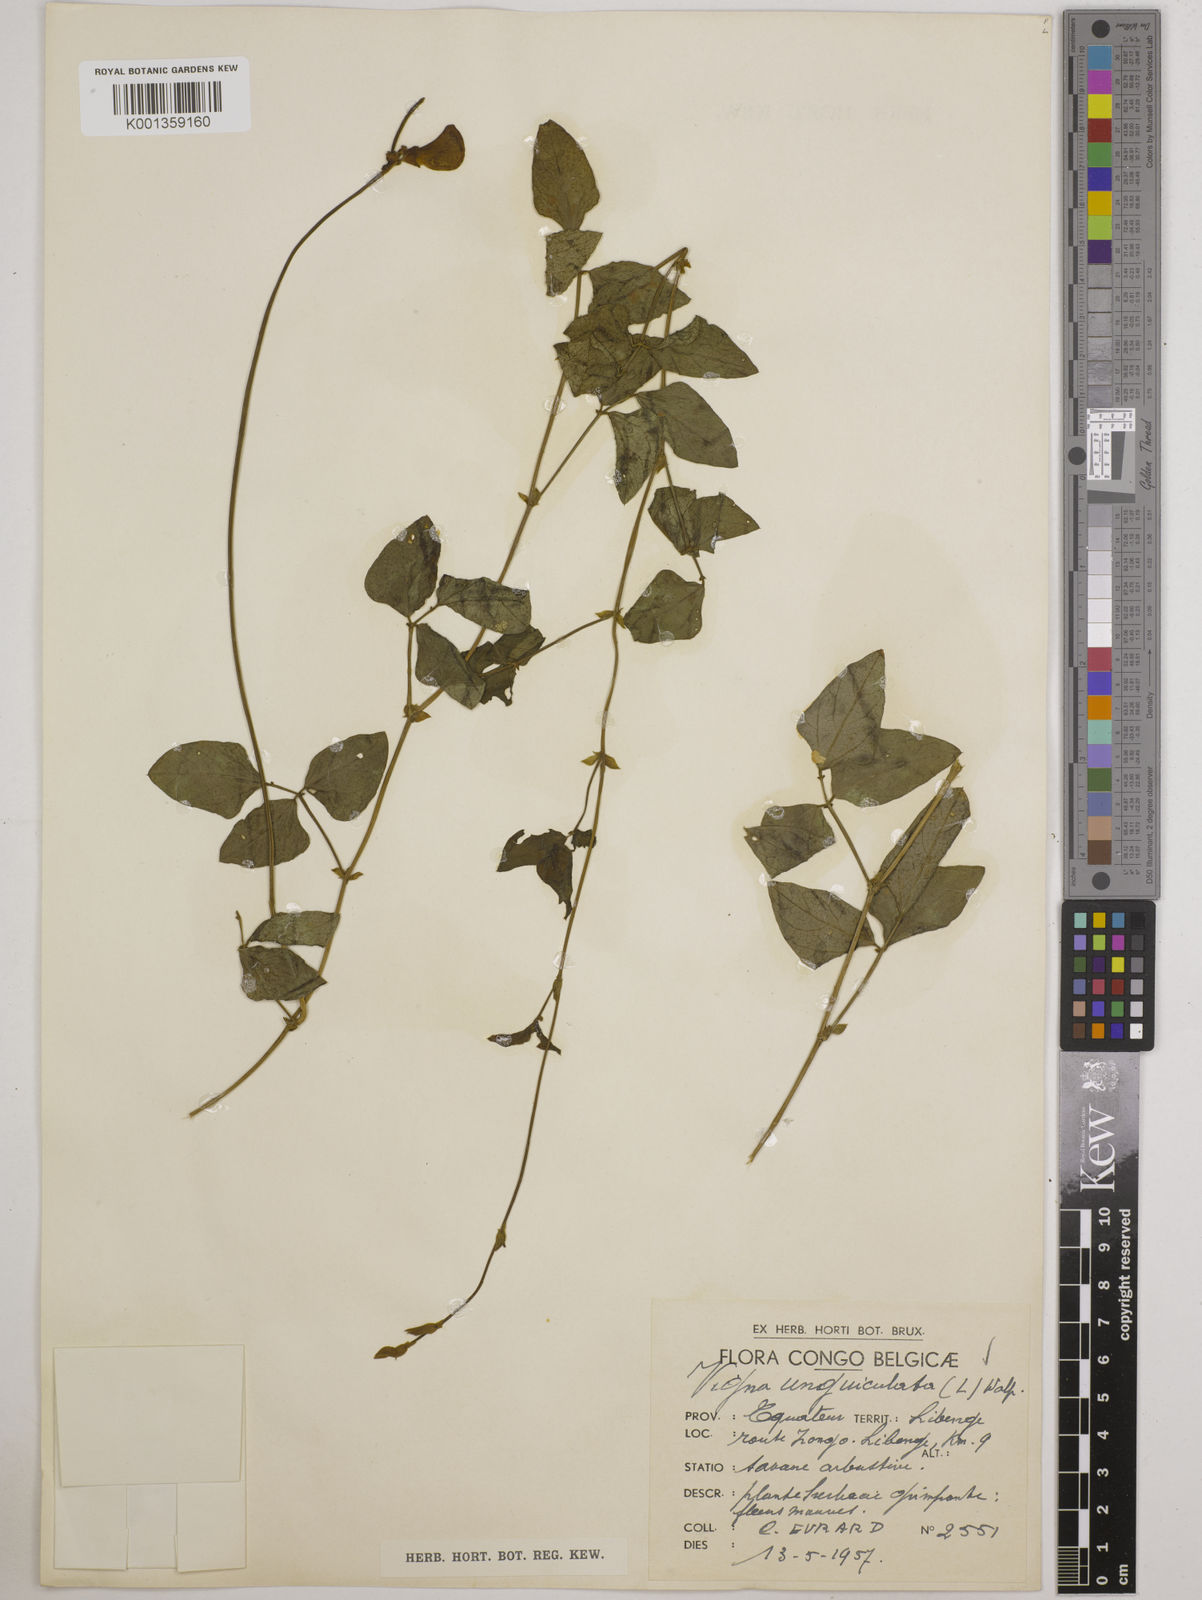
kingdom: Plantae
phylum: Tracheophyta
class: Magnoliopsida
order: Fabales
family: Fabaceae
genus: Vigna
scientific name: Vigna
